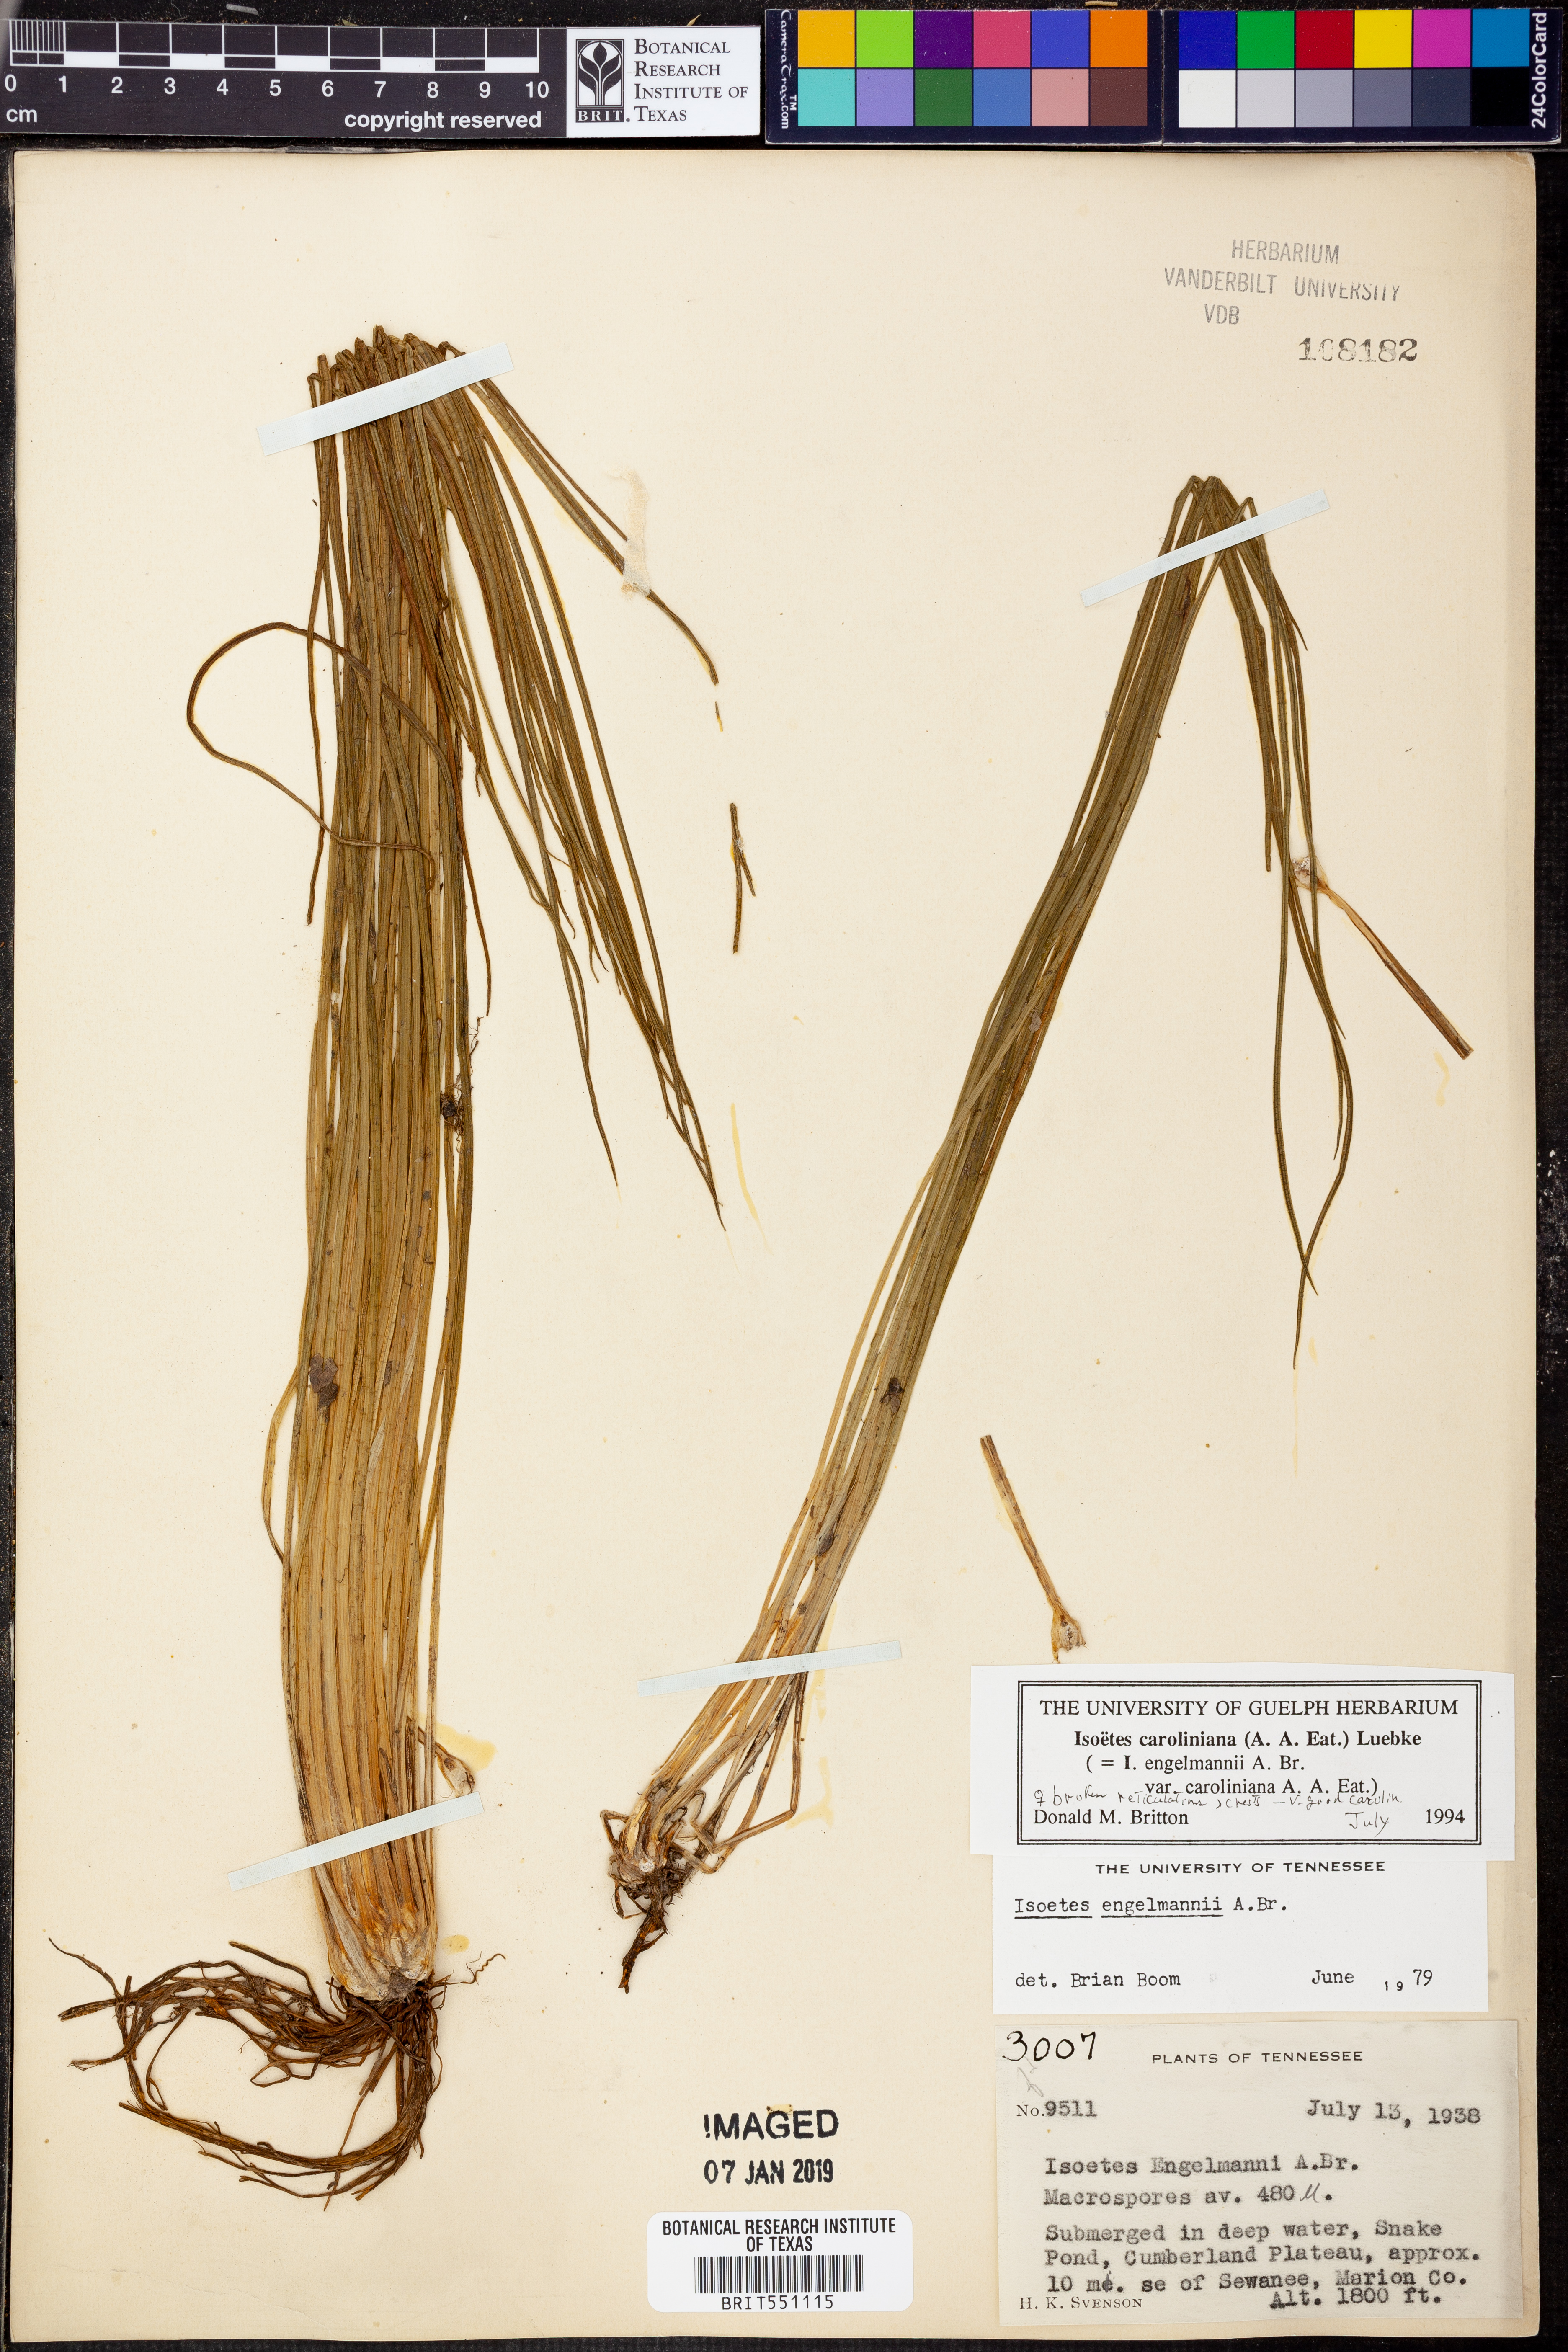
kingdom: Plantae
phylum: Tracheophyta
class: Lycopodiopsida
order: Isoetales
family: Isoetaceae
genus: Isoetes
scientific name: Isoetes caroliniana
